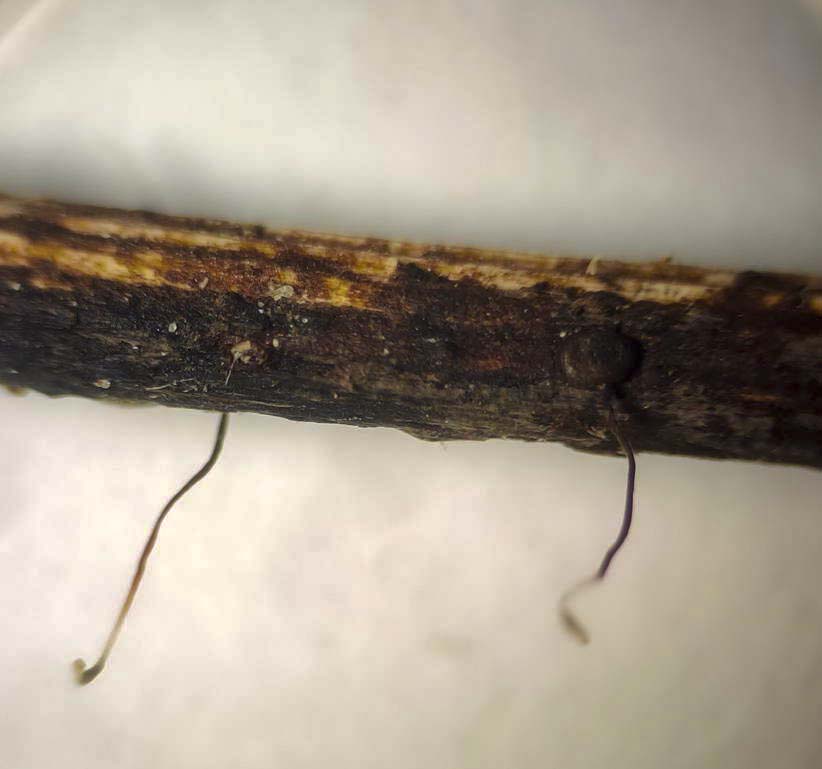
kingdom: Fungi
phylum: Basidiomycota
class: Agaricomycetes
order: Agaricales
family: Typhulaceae
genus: Typhula
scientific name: Typhula erythropus
